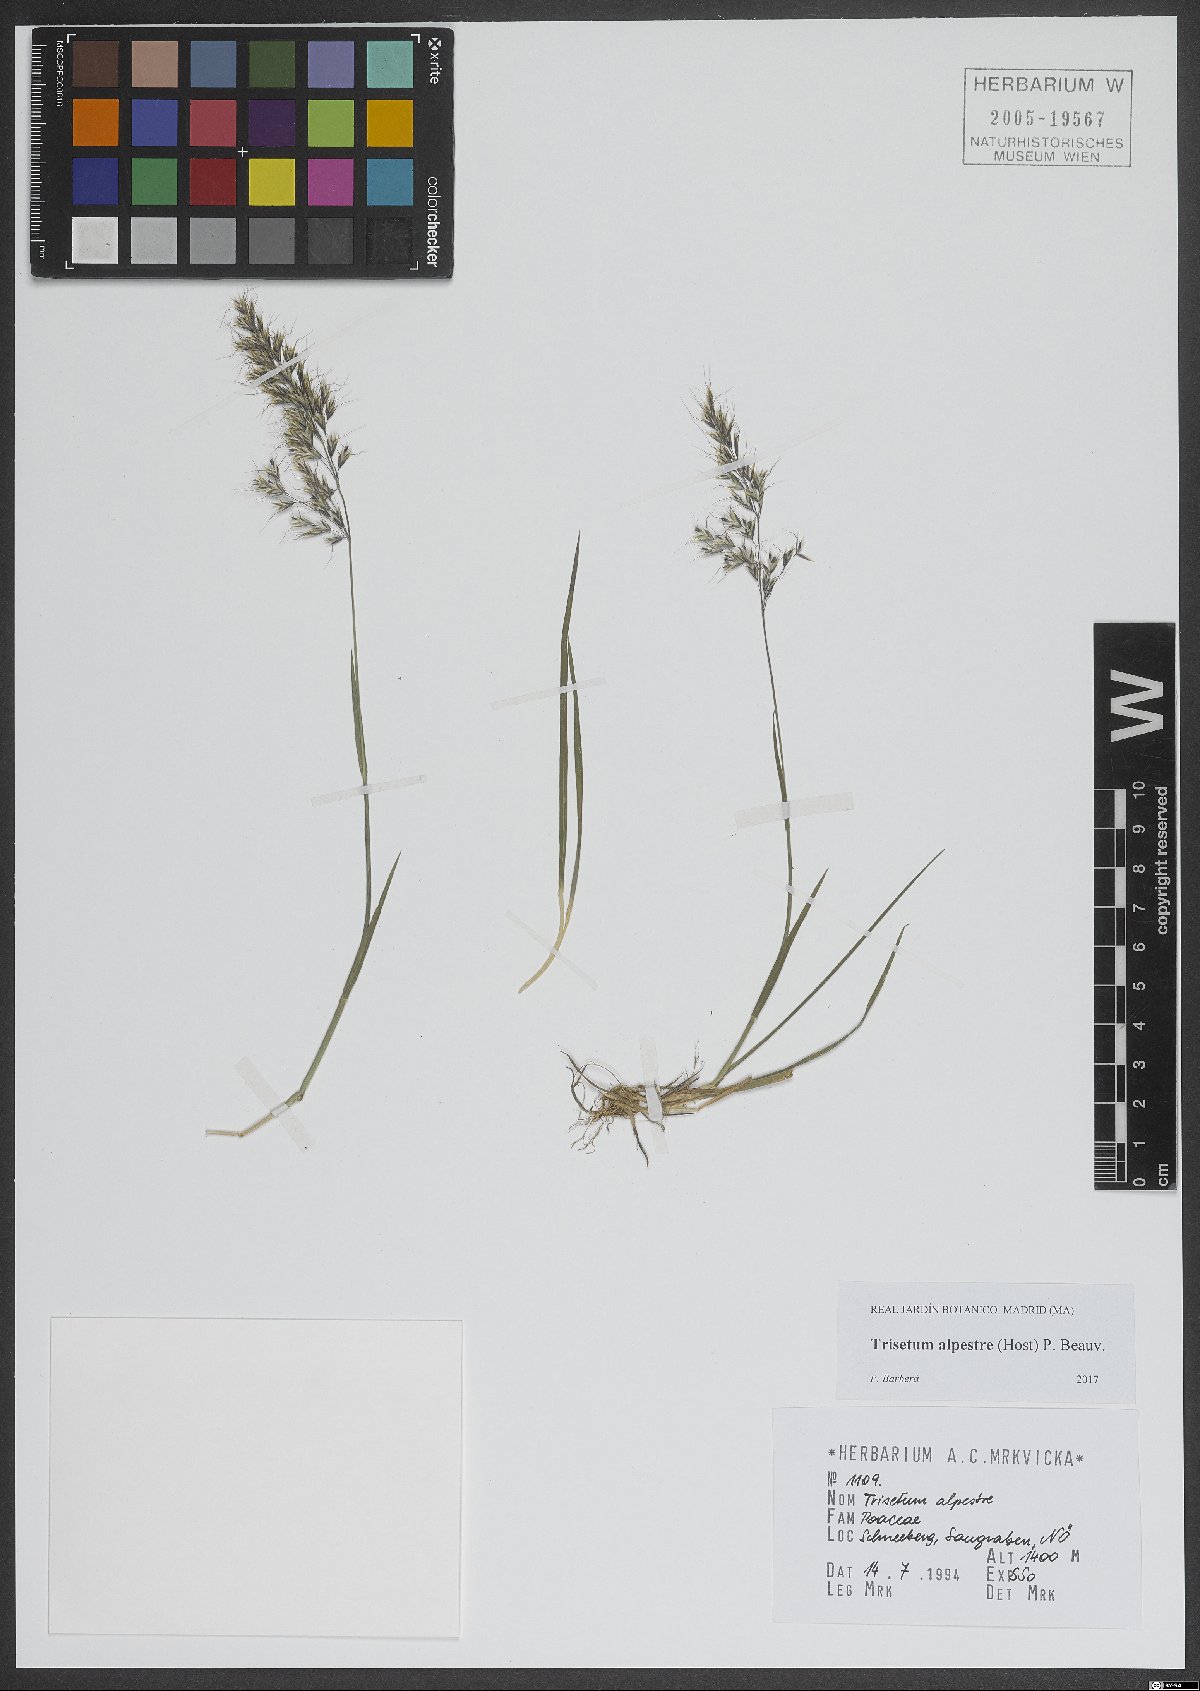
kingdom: Plantae
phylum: Tracheophyta
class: Liliopsida
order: Poales
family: Poaceae
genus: Trisetum
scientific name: Trisetum alpestre
